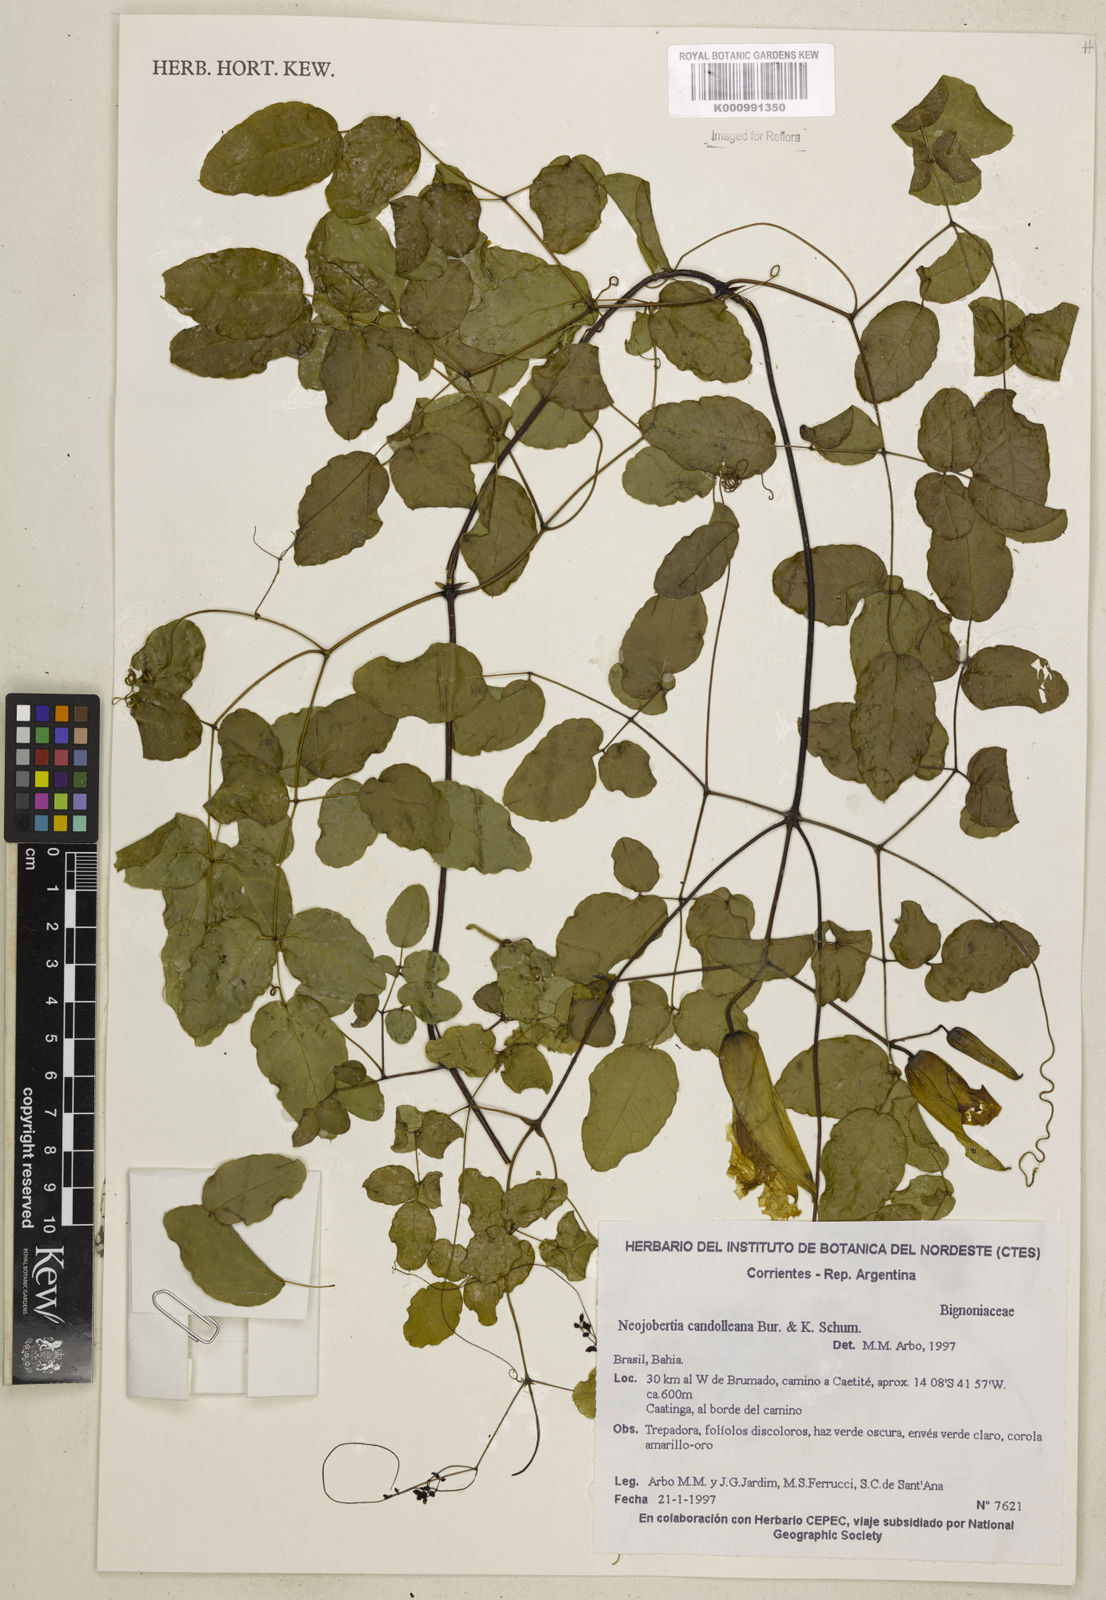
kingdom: Plantae
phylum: Tracheophyta
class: Magnoliopsida
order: Lamiales
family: Bignoniaceae
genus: Adenocalymma
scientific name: Adenocalymma candolleanum
